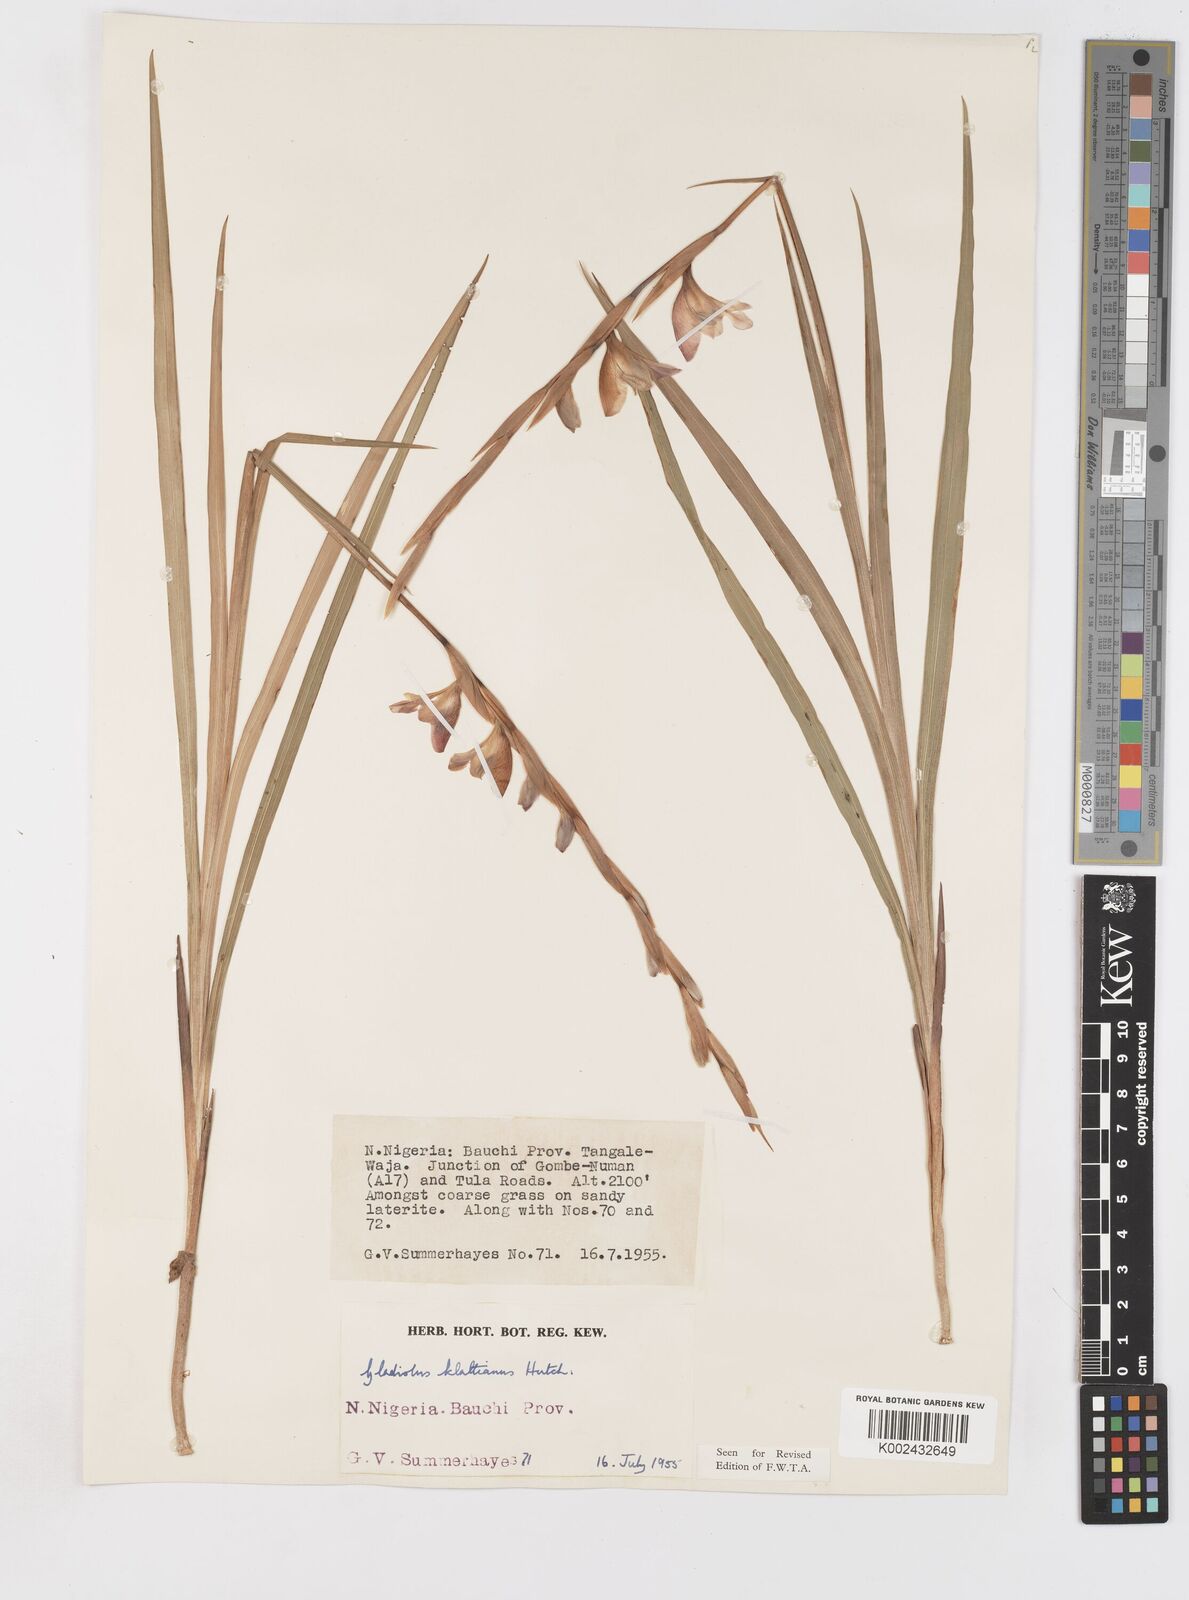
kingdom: Plantae
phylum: Tracheophyta
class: Liliopsida
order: Asparagales
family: Iridaceae
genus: Gladiolus
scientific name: Gladiolus gregarius
